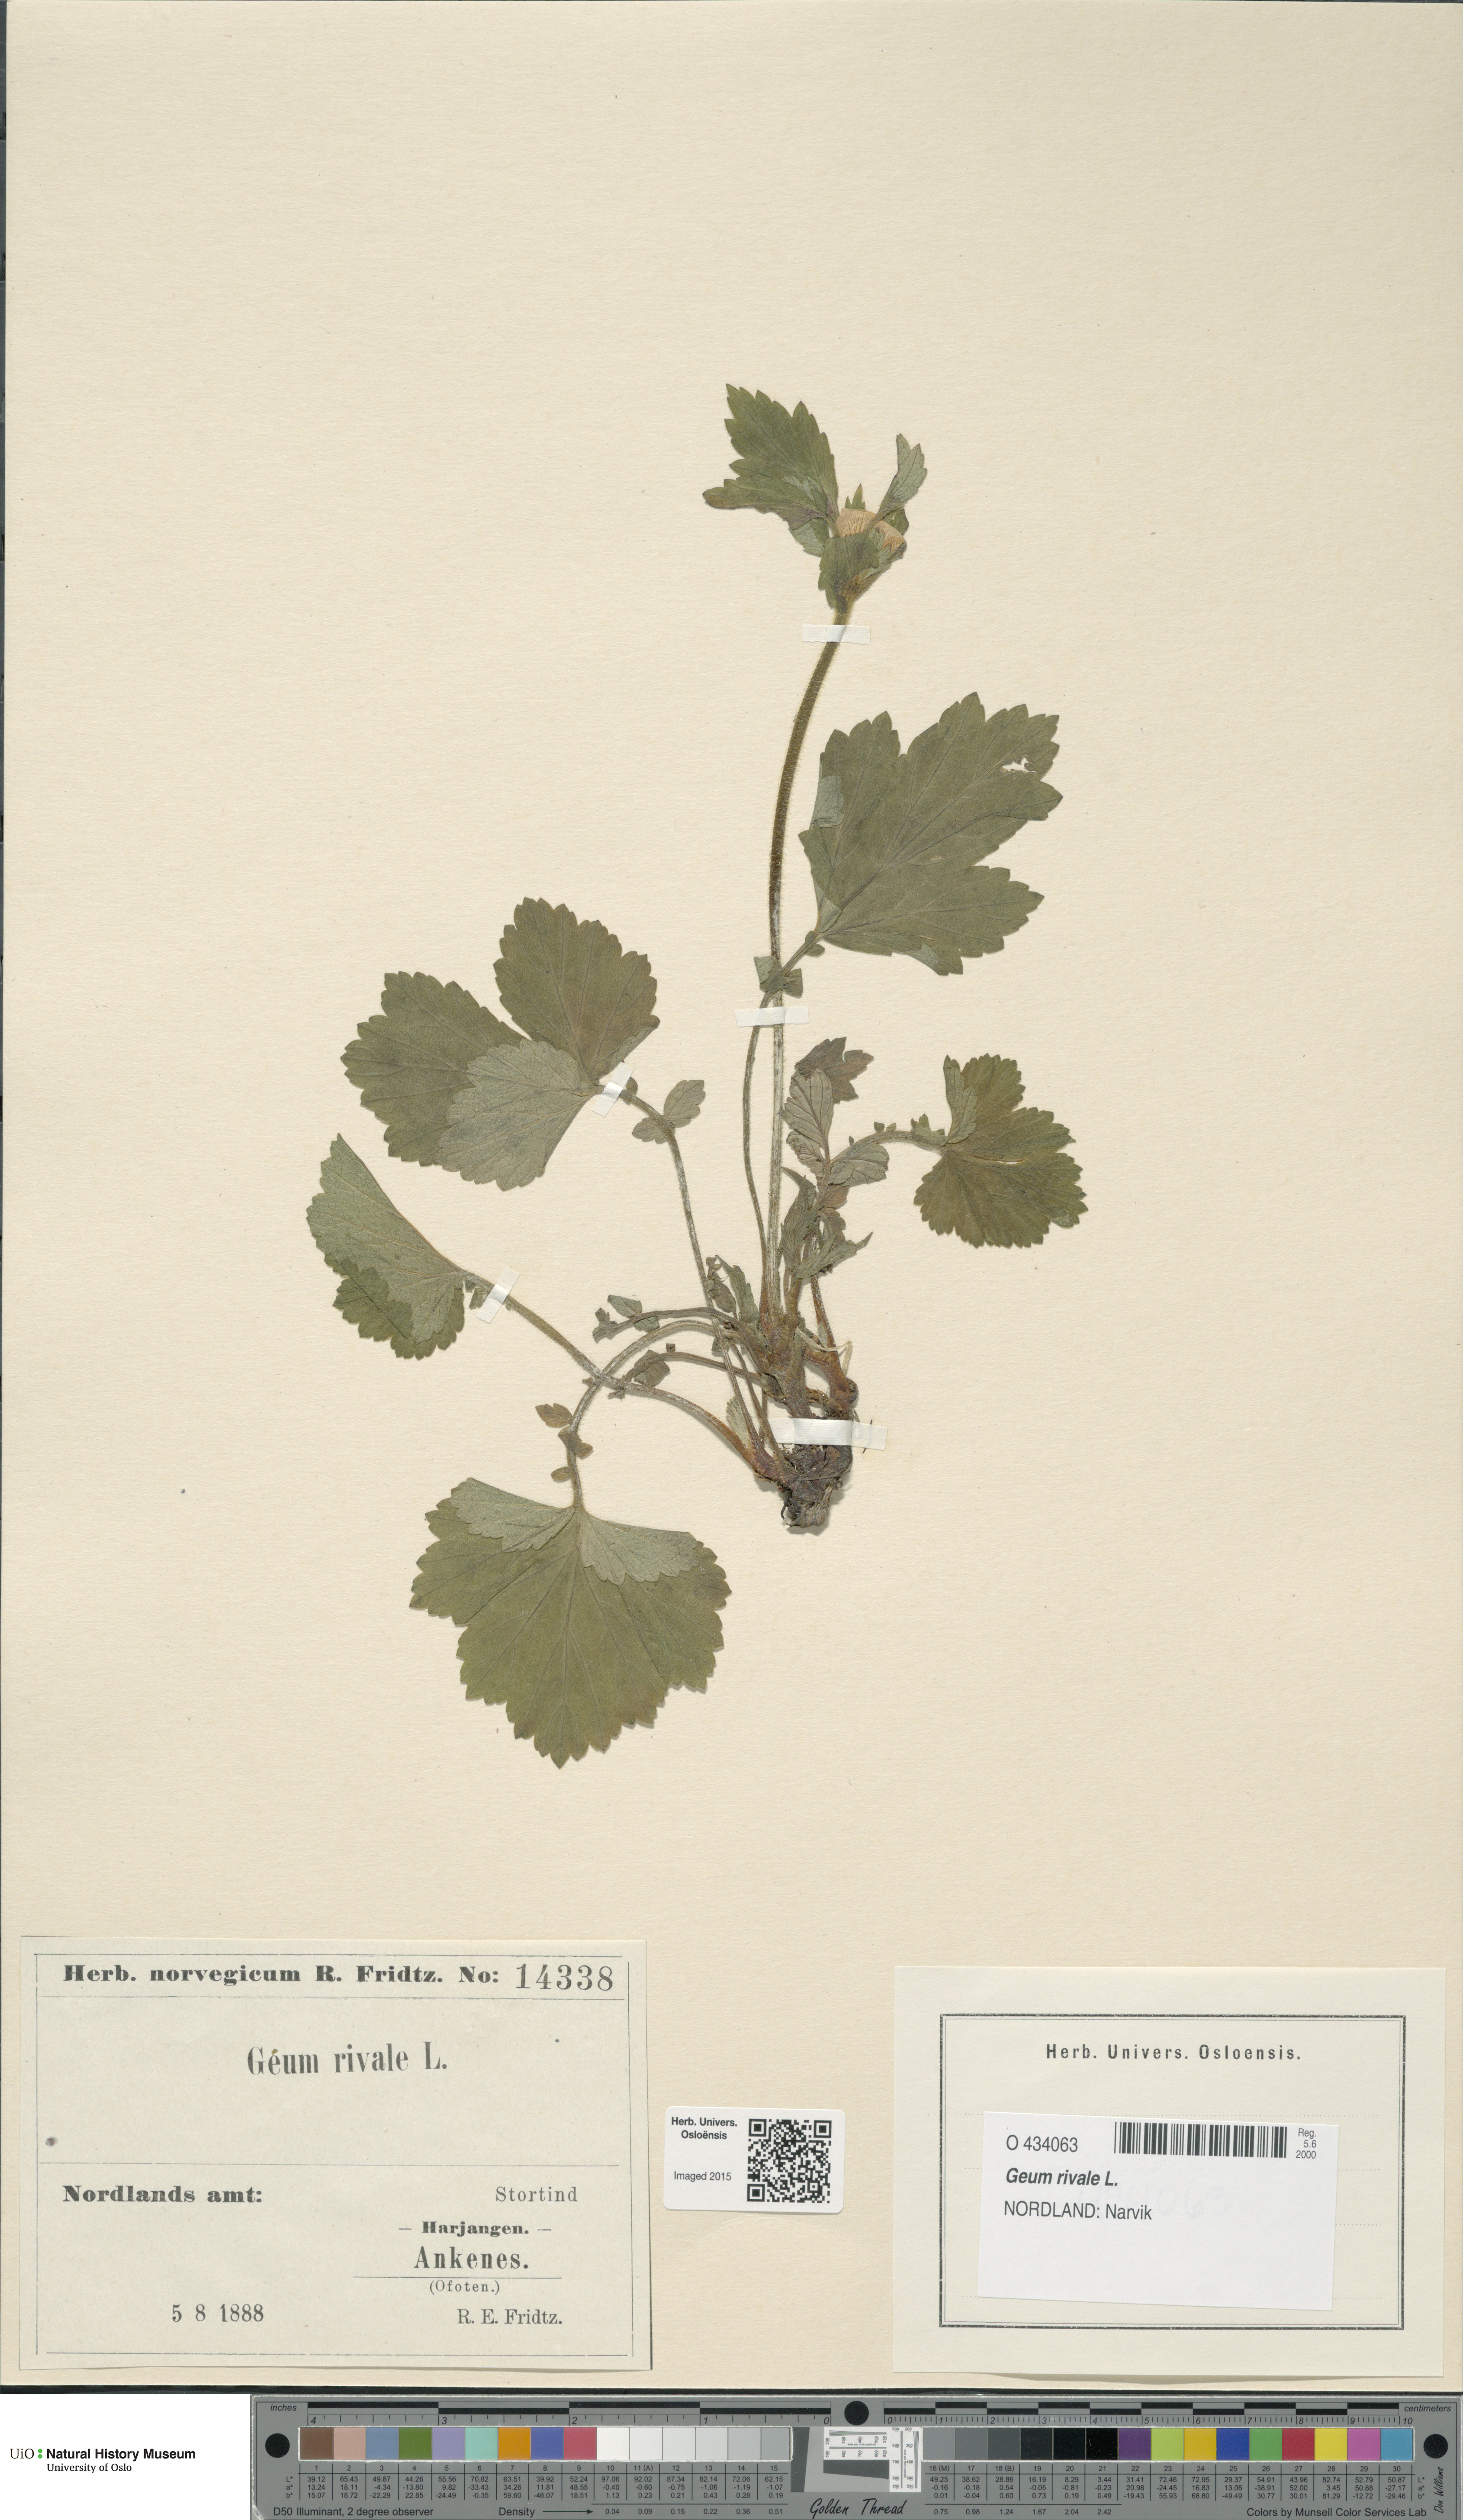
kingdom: Plantae
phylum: Tracheophyta
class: Magnoliopsida
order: Rosales
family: Rosaceae
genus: Geum
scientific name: Geum rivale
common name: Water avens
